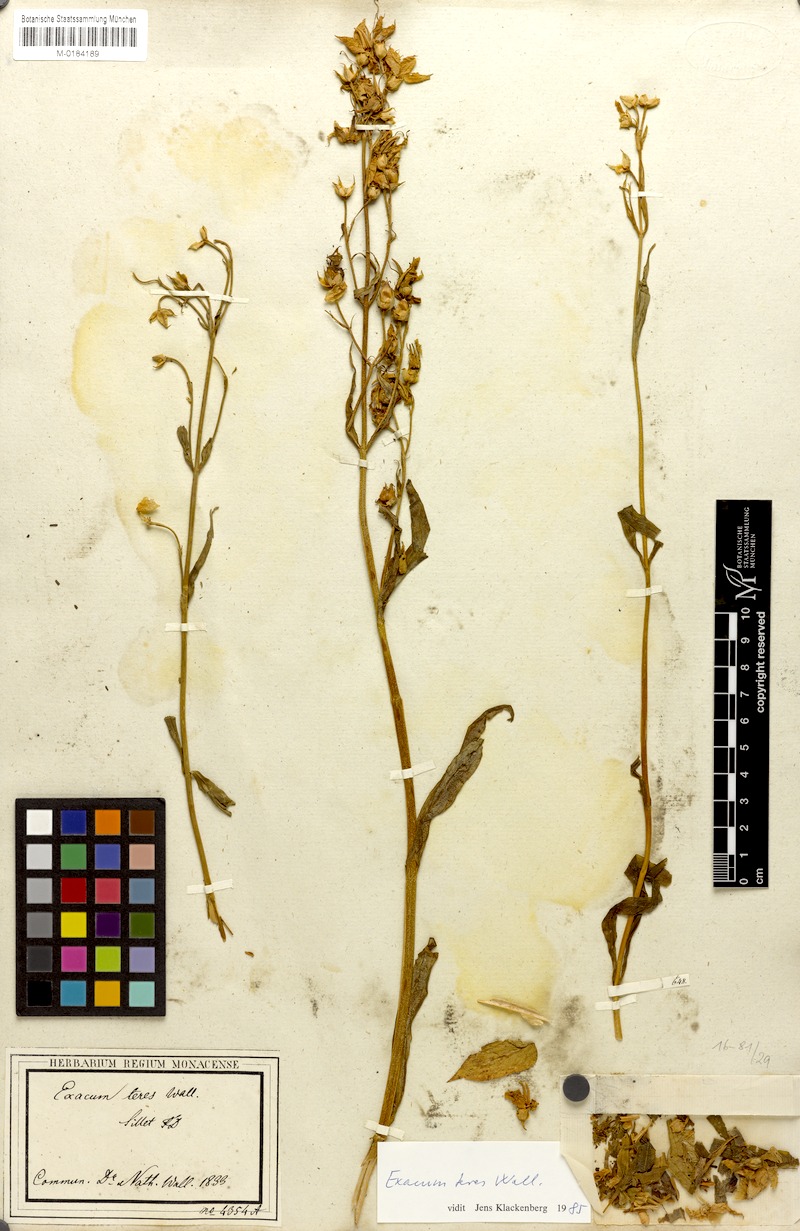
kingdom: Plantae
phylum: Tracheophyta
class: Magnoliopsida
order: Gentianales
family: Gentianaceae
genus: Exacum
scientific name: Exacum teres
